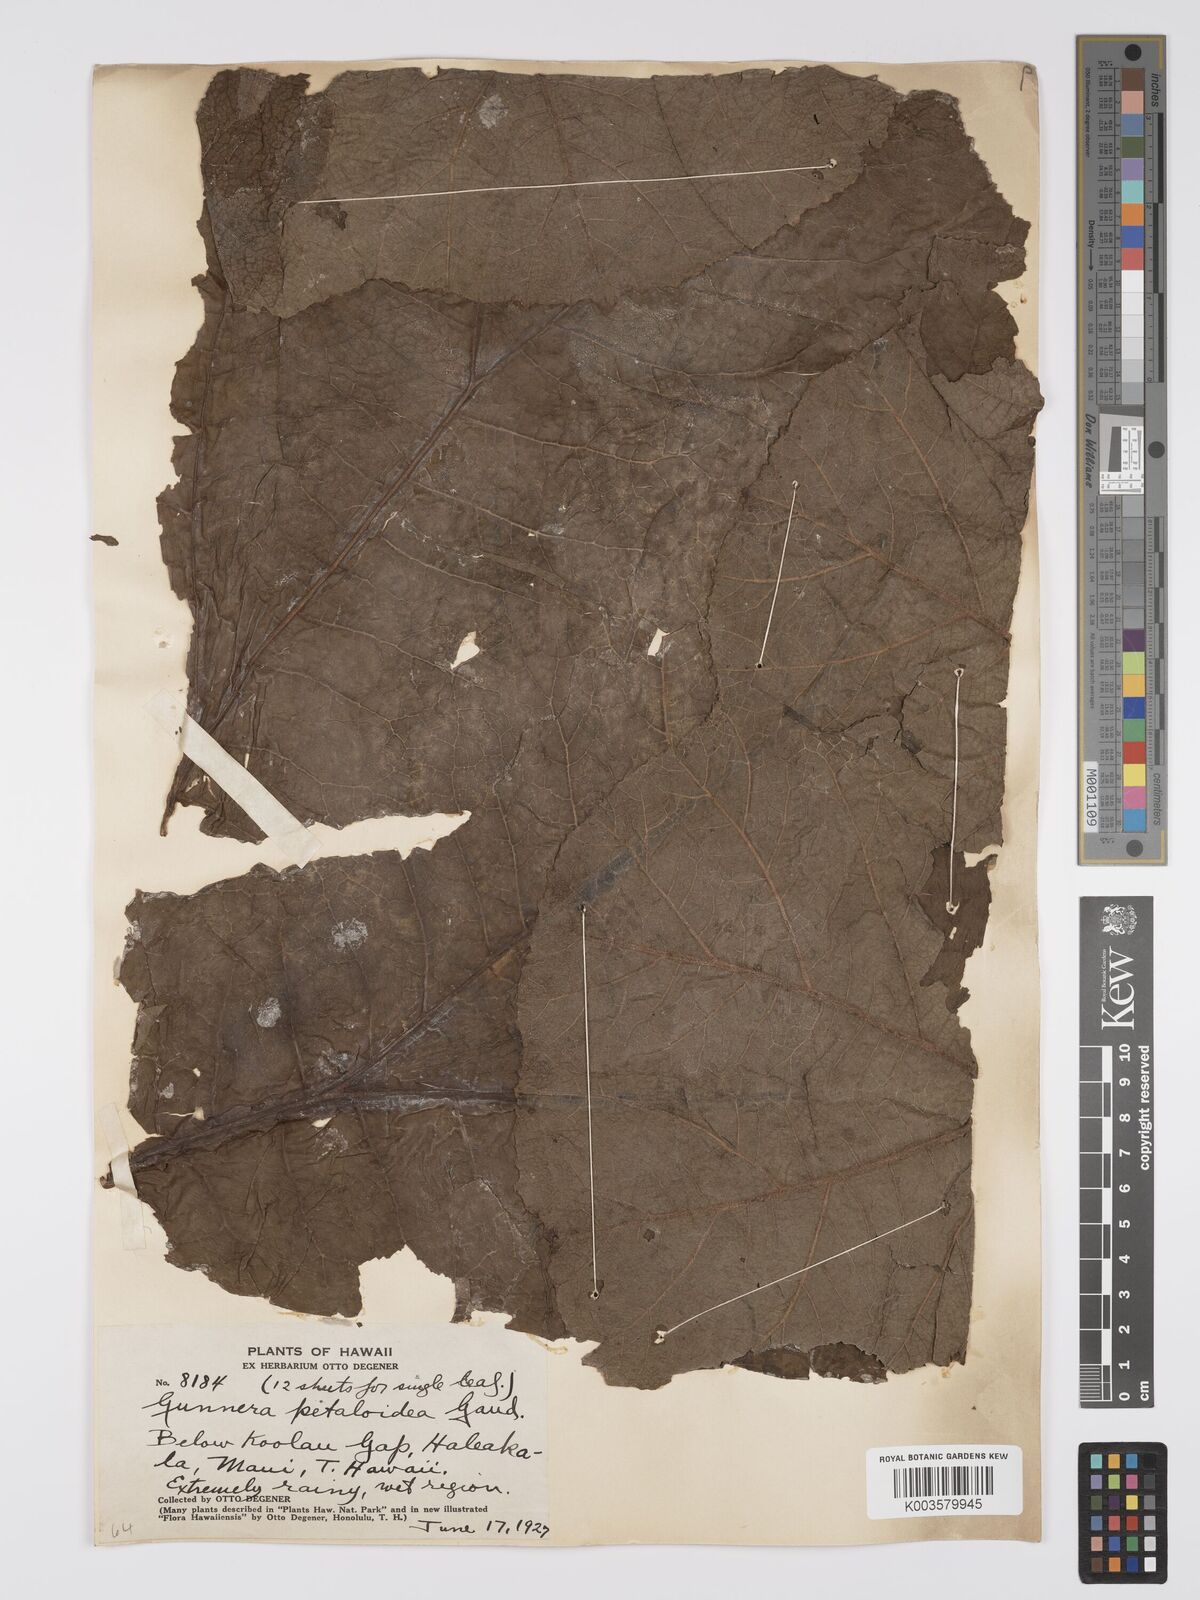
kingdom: Plantae
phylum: Tracheophyta
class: Magnoliopsida
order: Gunnerales
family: Gunneraceae
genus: Gunnera
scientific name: Gunnera petaloidea
